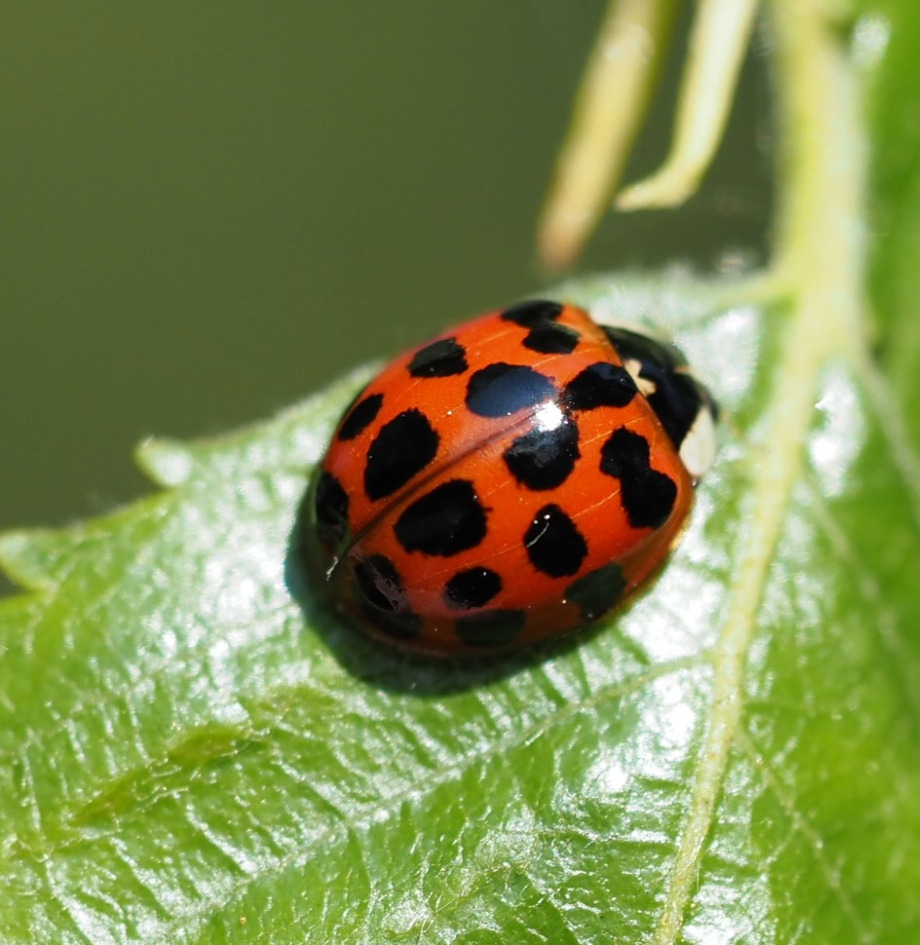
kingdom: Animalia
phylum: Arthropoda
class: Insecta
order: Coleoptera
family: Coccinellidae
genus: Harmonia
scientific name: Harmonia axyridis
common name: Harlekinmariehøne
